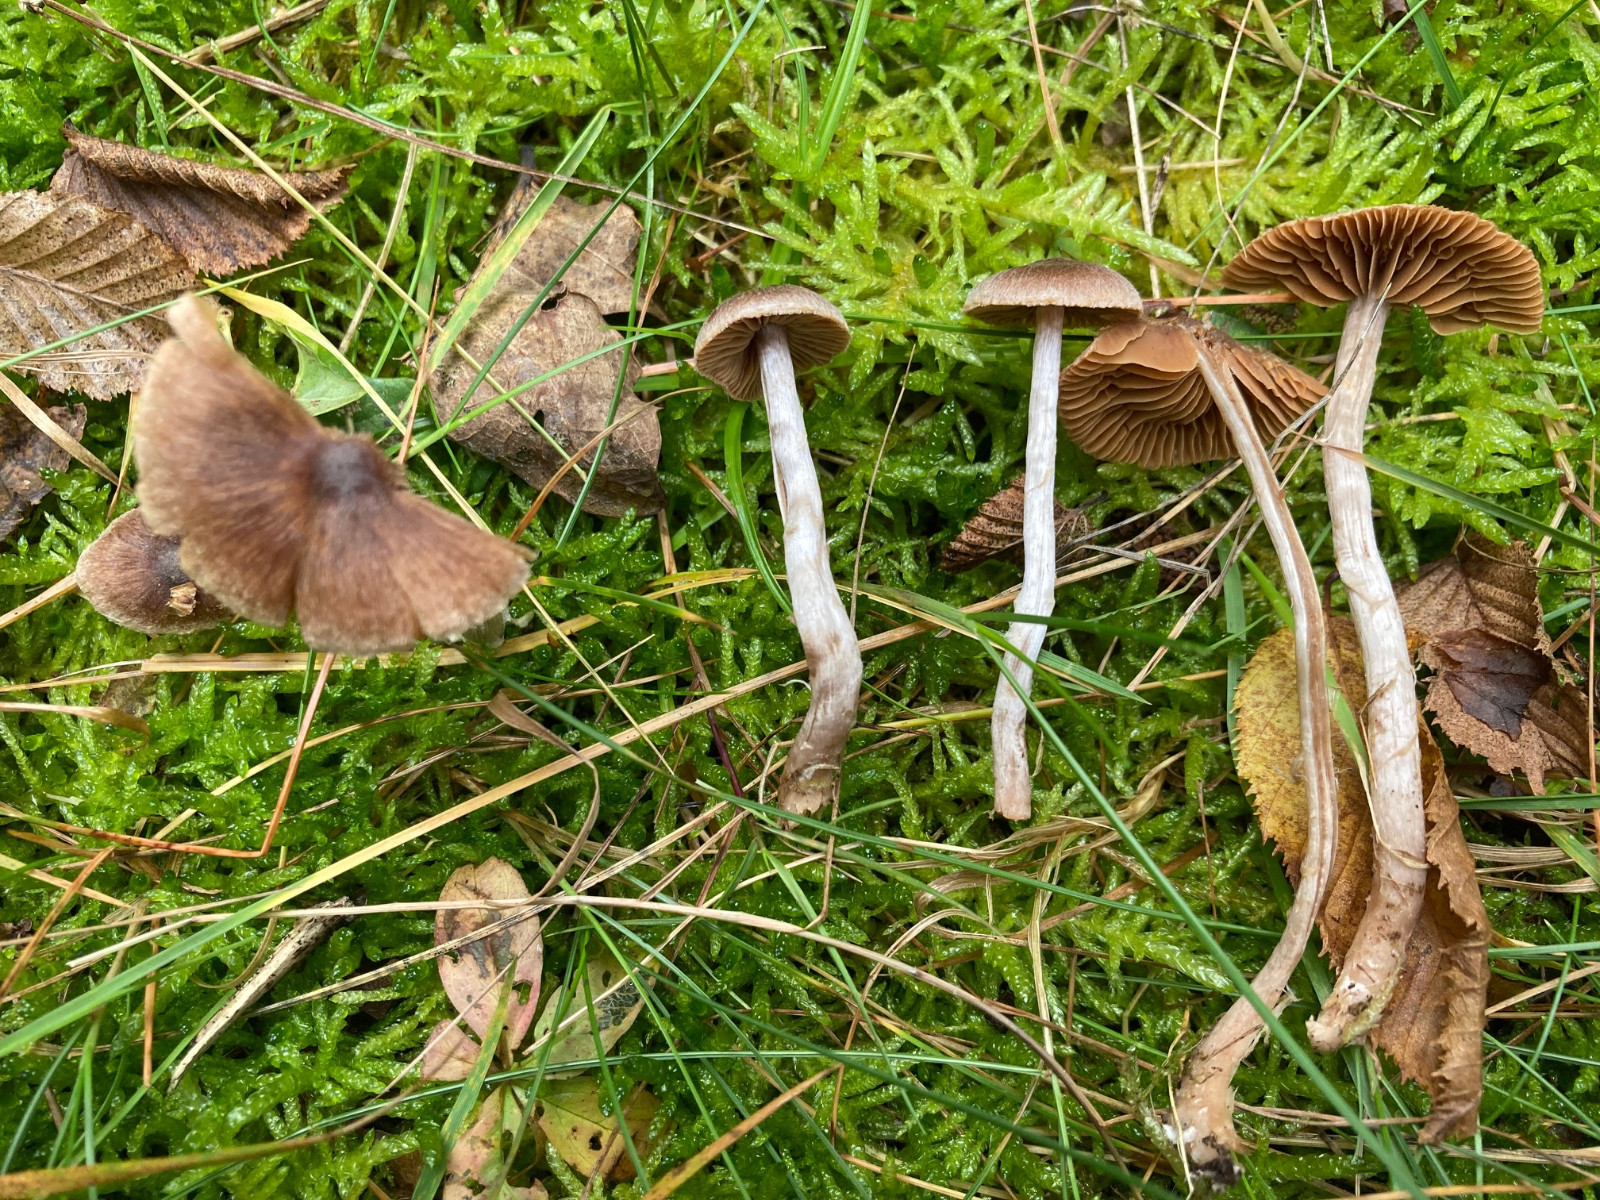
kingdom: Fungi
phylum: Basidiomycota
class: Agaricomycetes
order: Agaricales
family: Cortinariaceae
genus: Cortinarius
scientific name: Cortinarius hirtus
